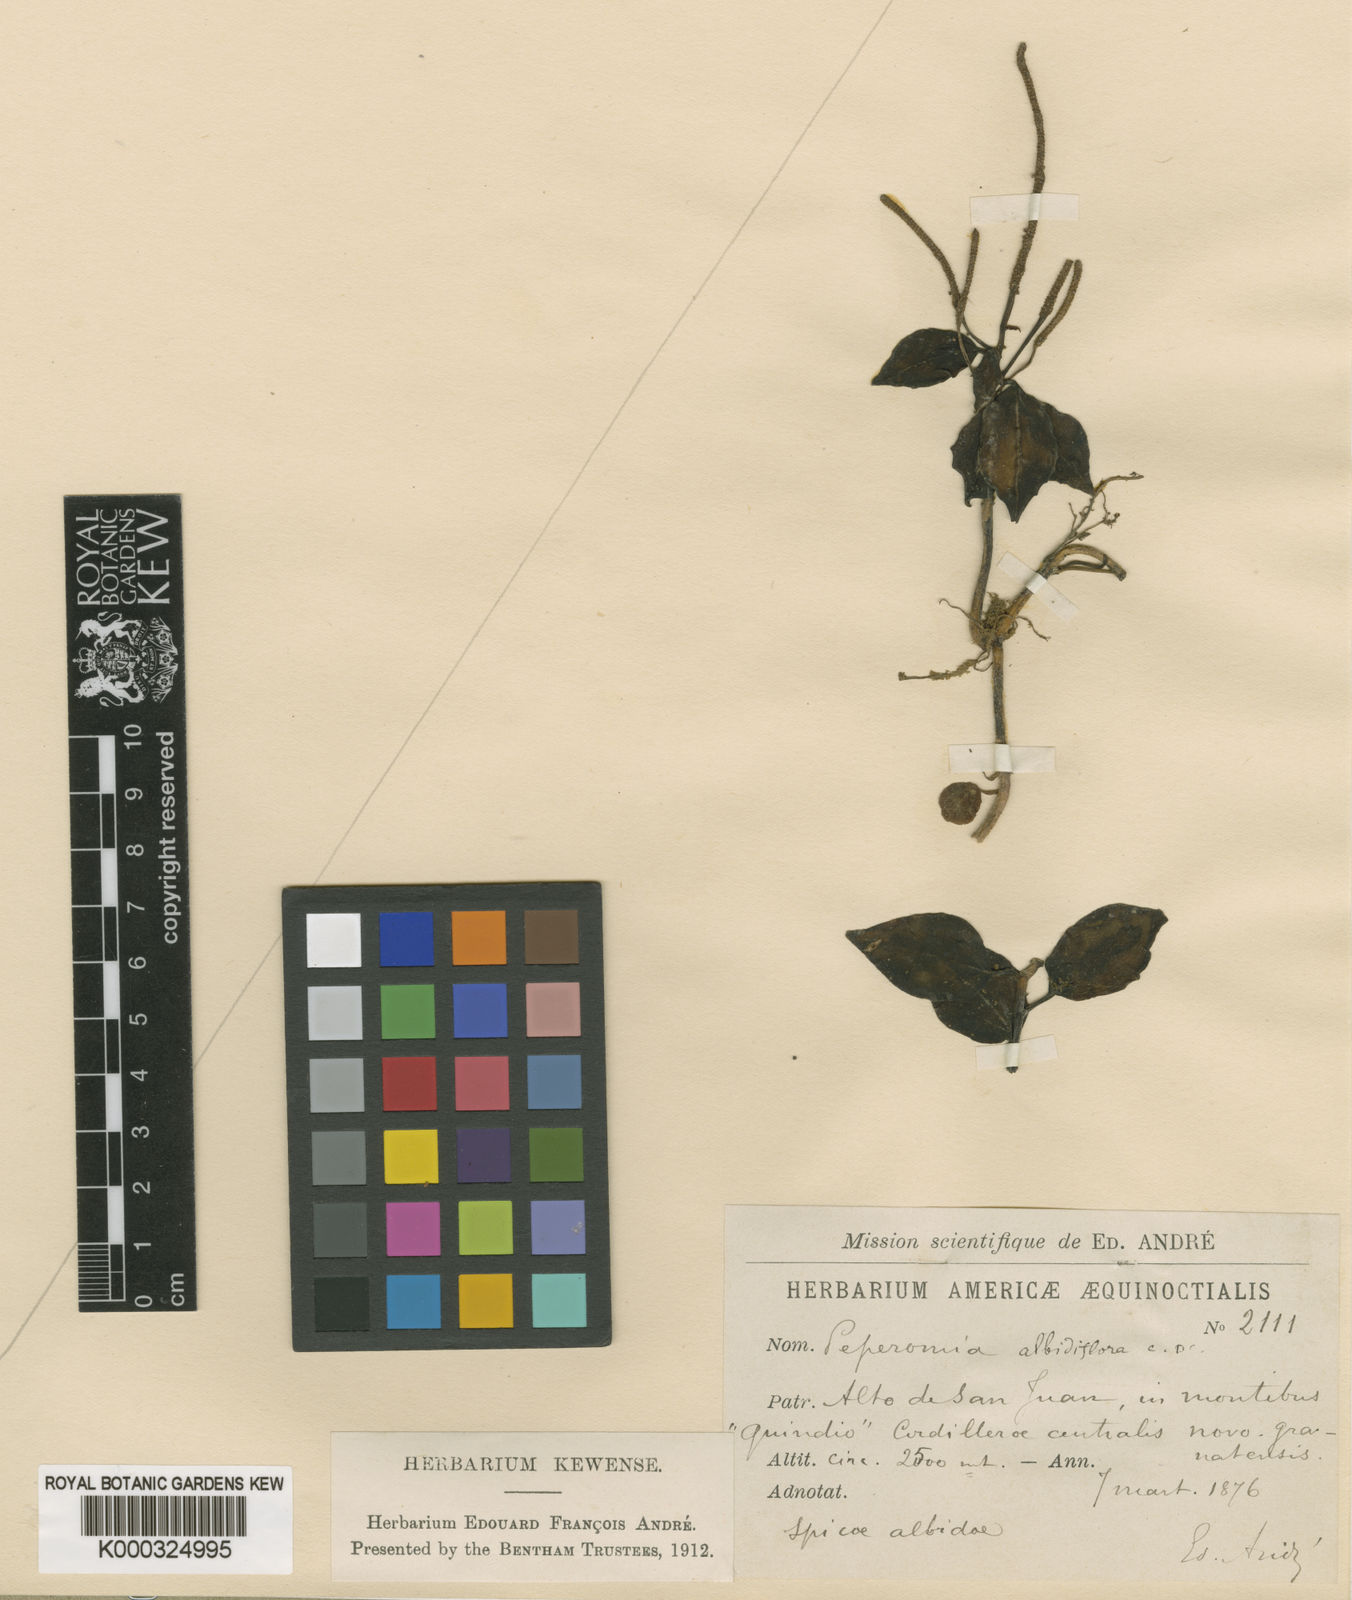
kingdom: Plantae
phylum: Tracheophyta
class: Magnoliopsida
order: Piperales
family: Piperaceae
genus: Peperomia
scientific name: Peperomia albidiflora
